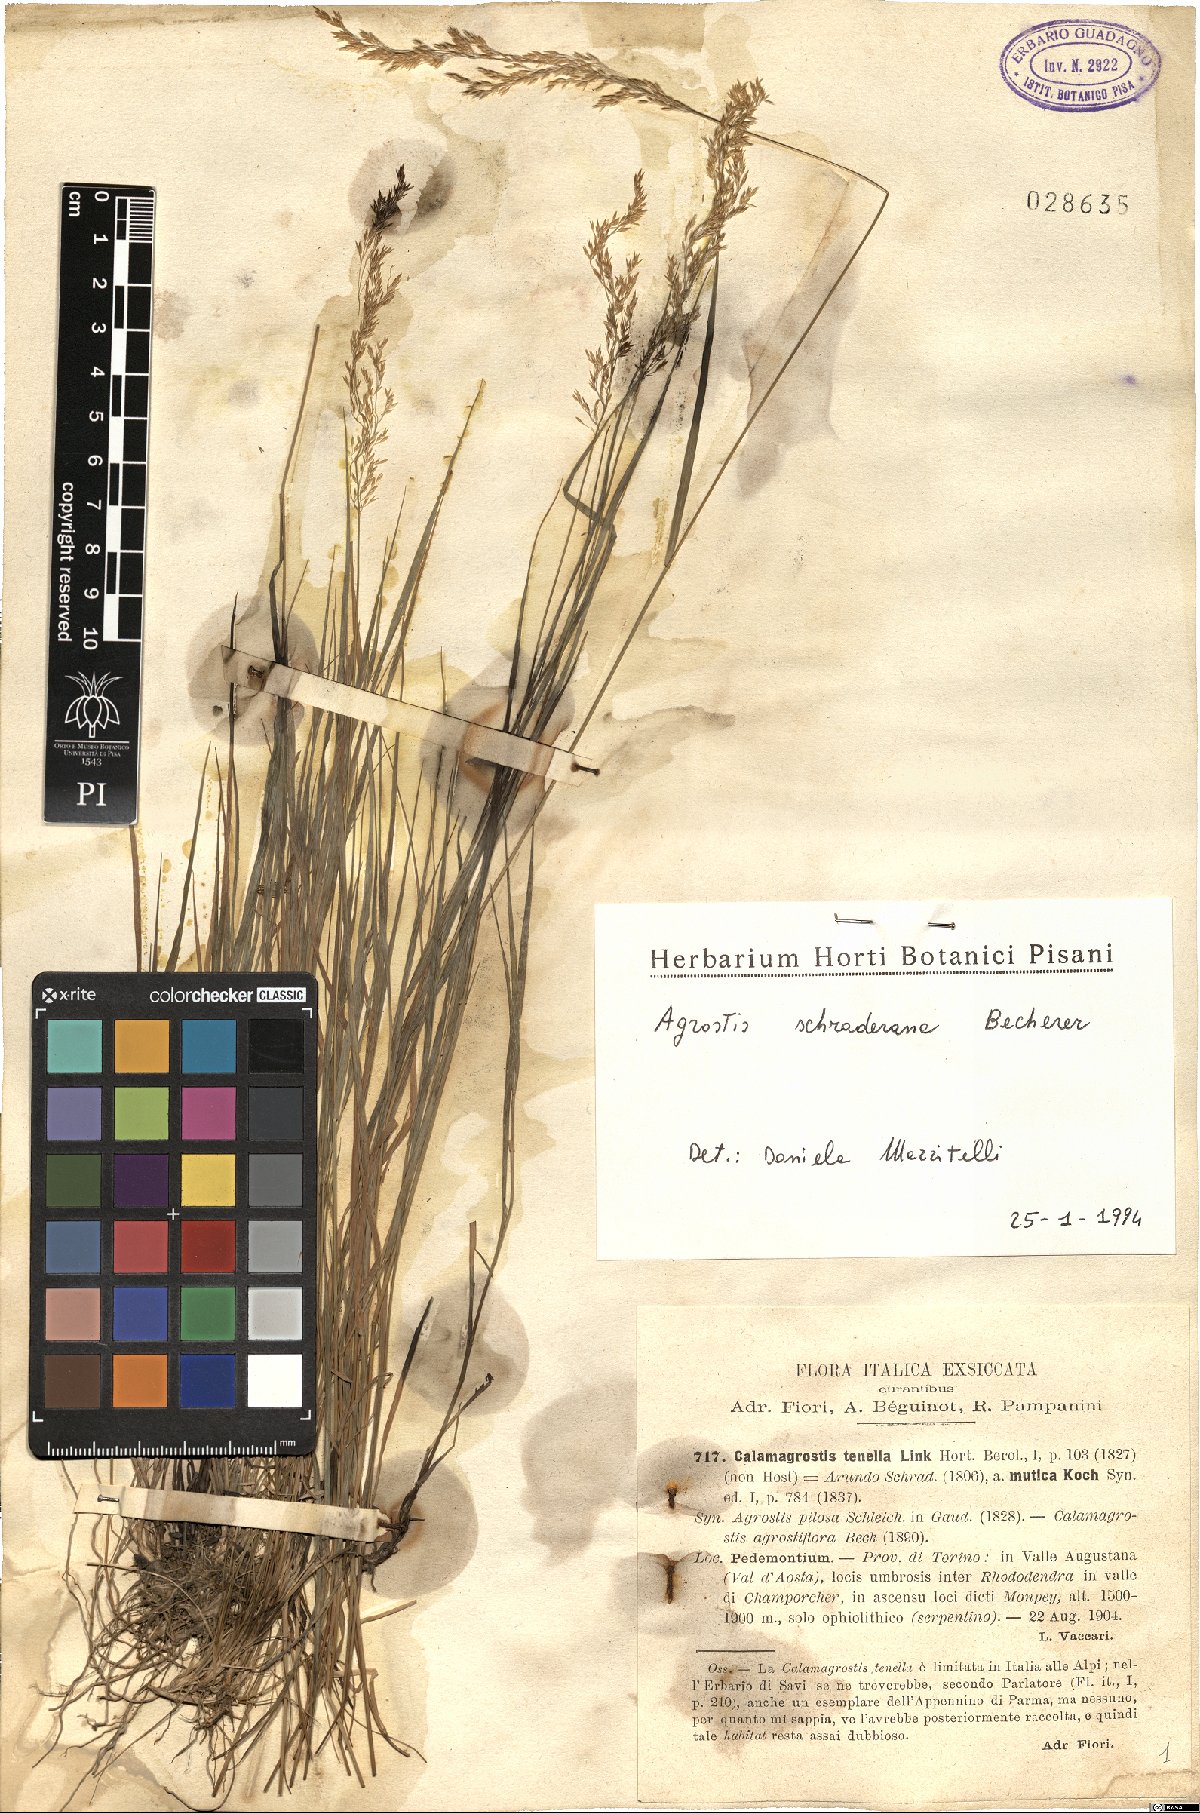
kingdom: Plantae
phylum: Tracheophyta
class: Liliopsida
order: Poales
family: Poaceae
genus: Agrostis
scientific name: Agrostis schraderiana
